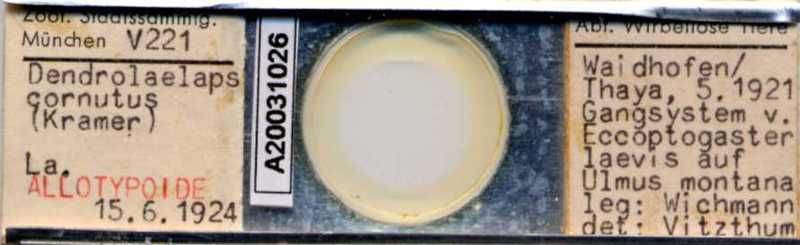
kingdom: Animalia
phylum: Arthropoda
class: Arachnida
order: Mesostigmata
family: Digamasellidae
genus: Dendrolaelaps
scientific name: Dendrolaelaps
